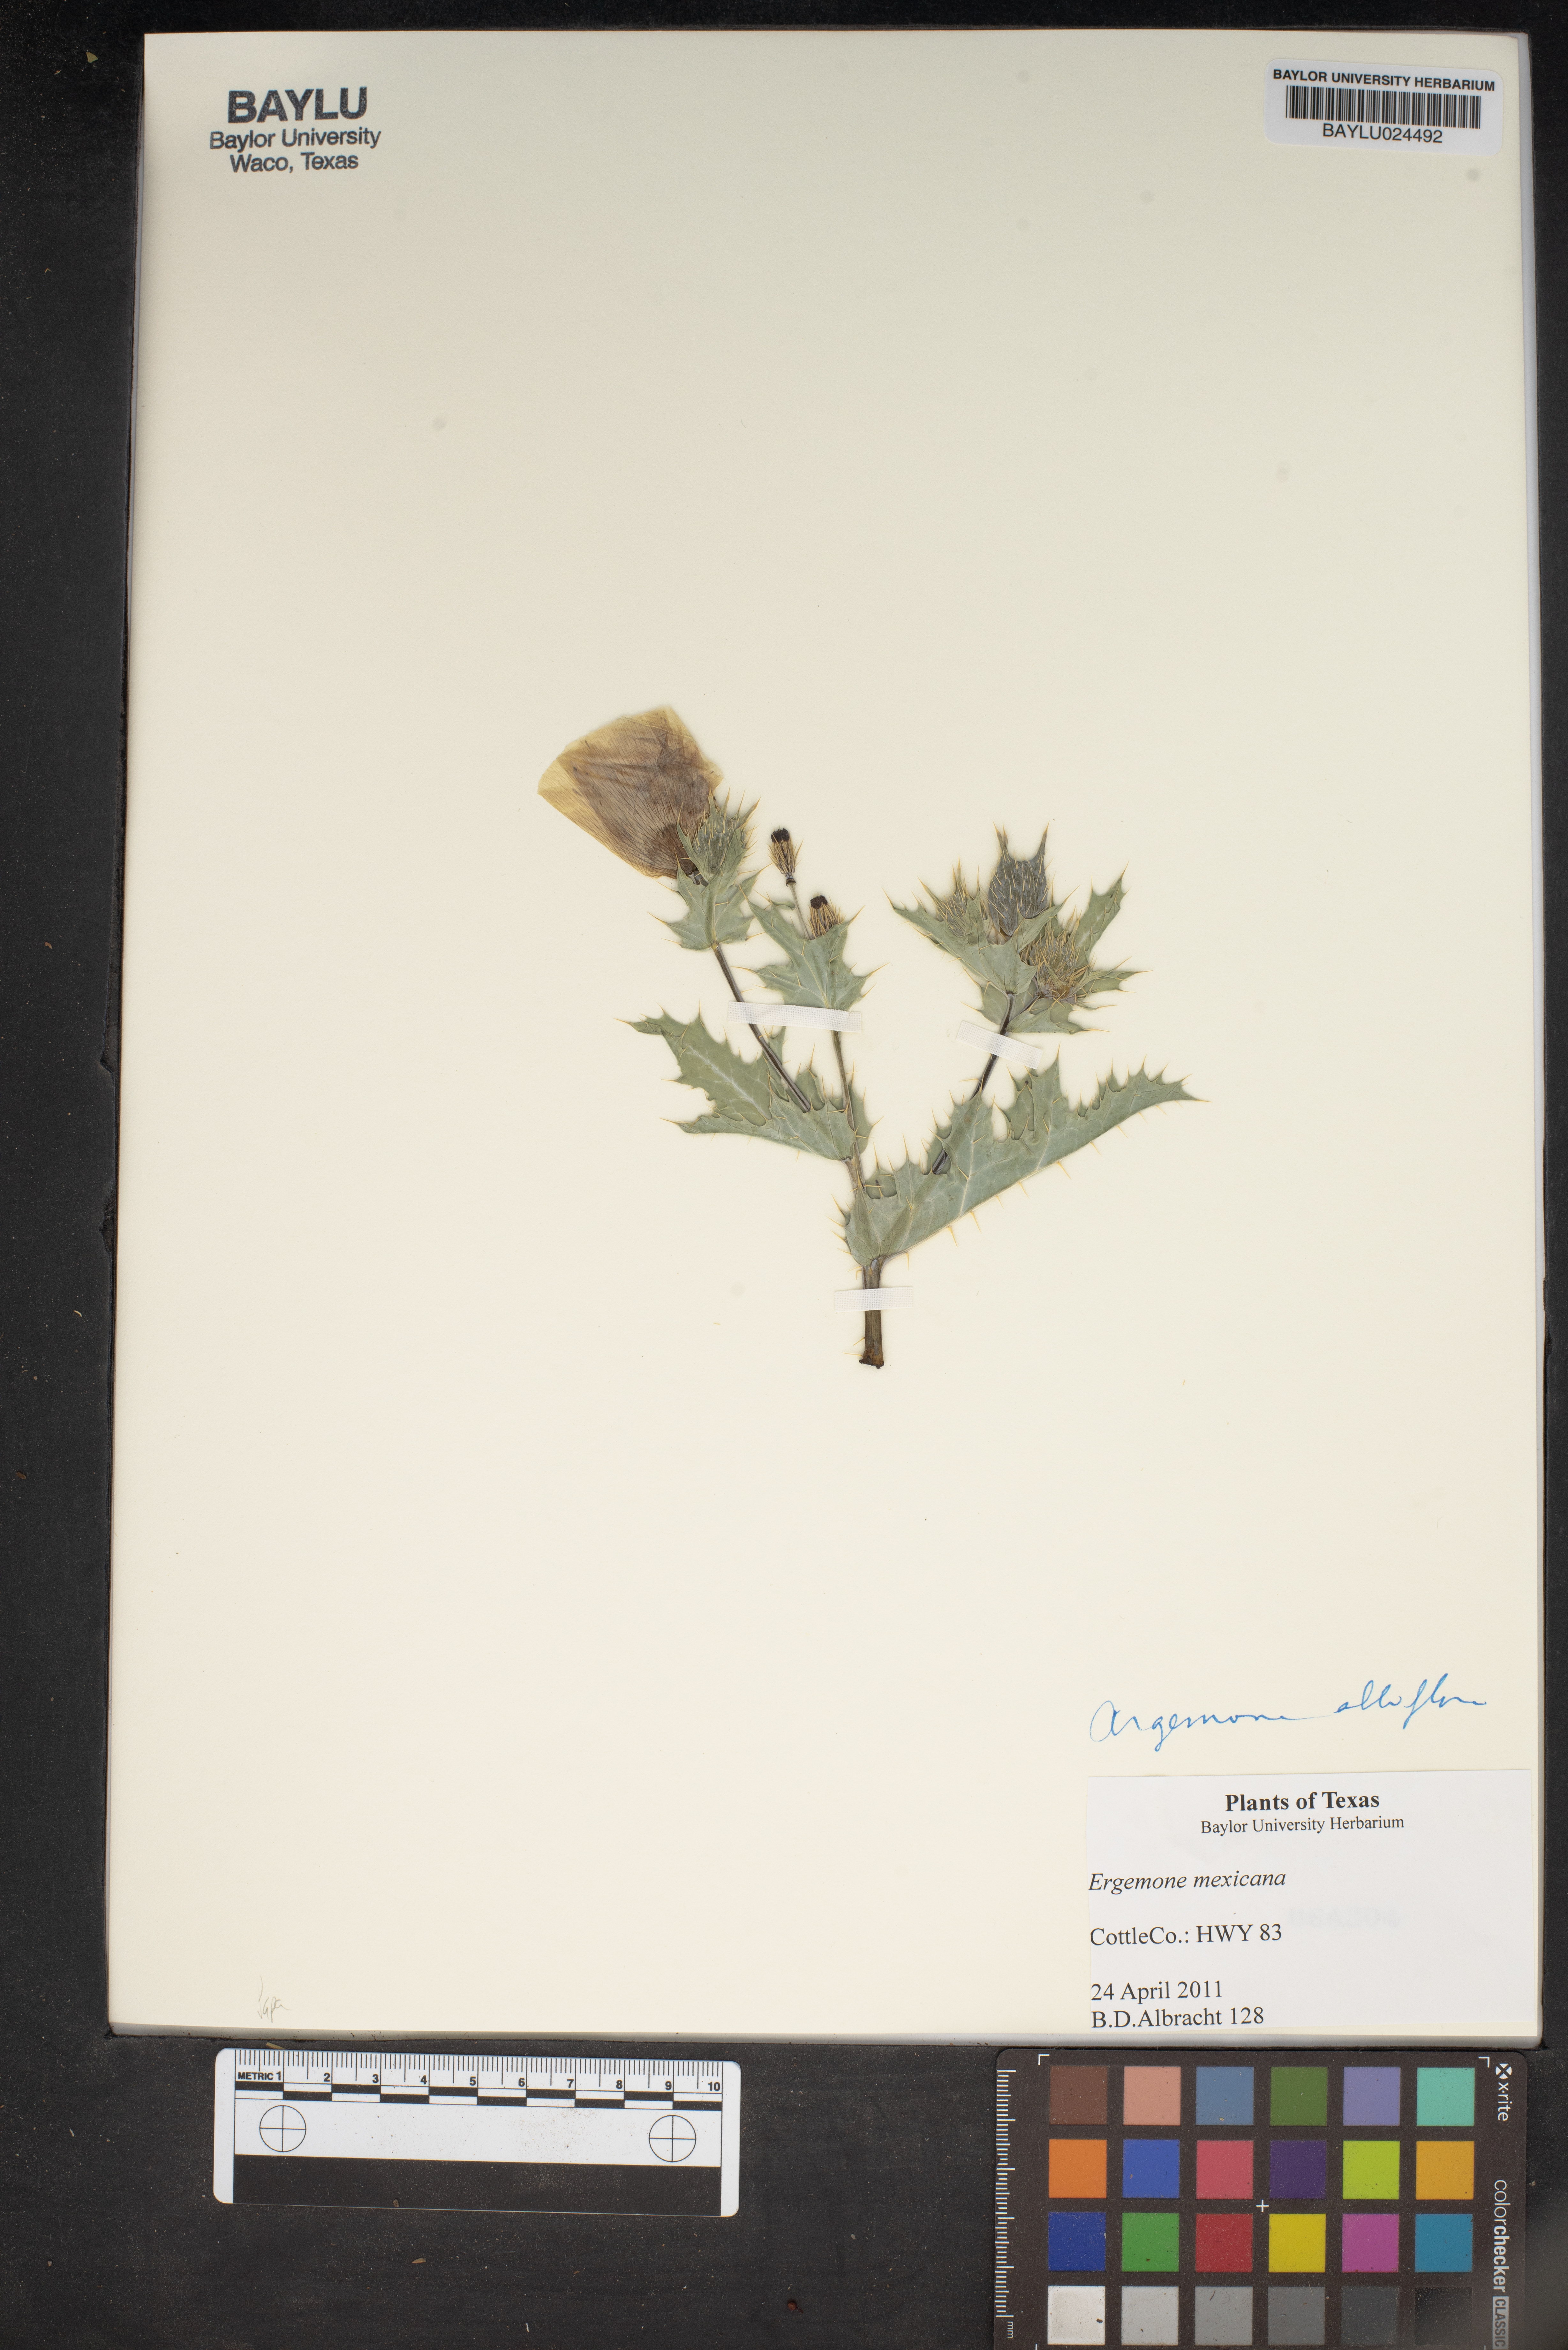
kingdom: Plantae
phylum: Tracheophyta
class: Magnoliopsida
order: Ranunculales
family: Papaveraceae
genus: Argemone
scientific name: Argemone mexicana
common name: Mexican poppy
